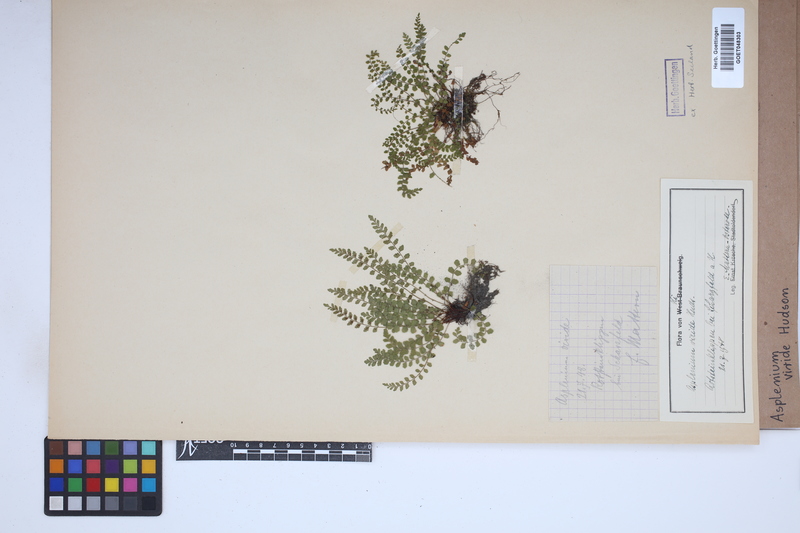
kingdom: Plantae
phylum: Tracheophyta
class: Polypodiopsida
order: Polypodiales
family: Aspleniaceae
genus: Asplenium
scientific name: Asplenium viride
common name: Green spleenwort
